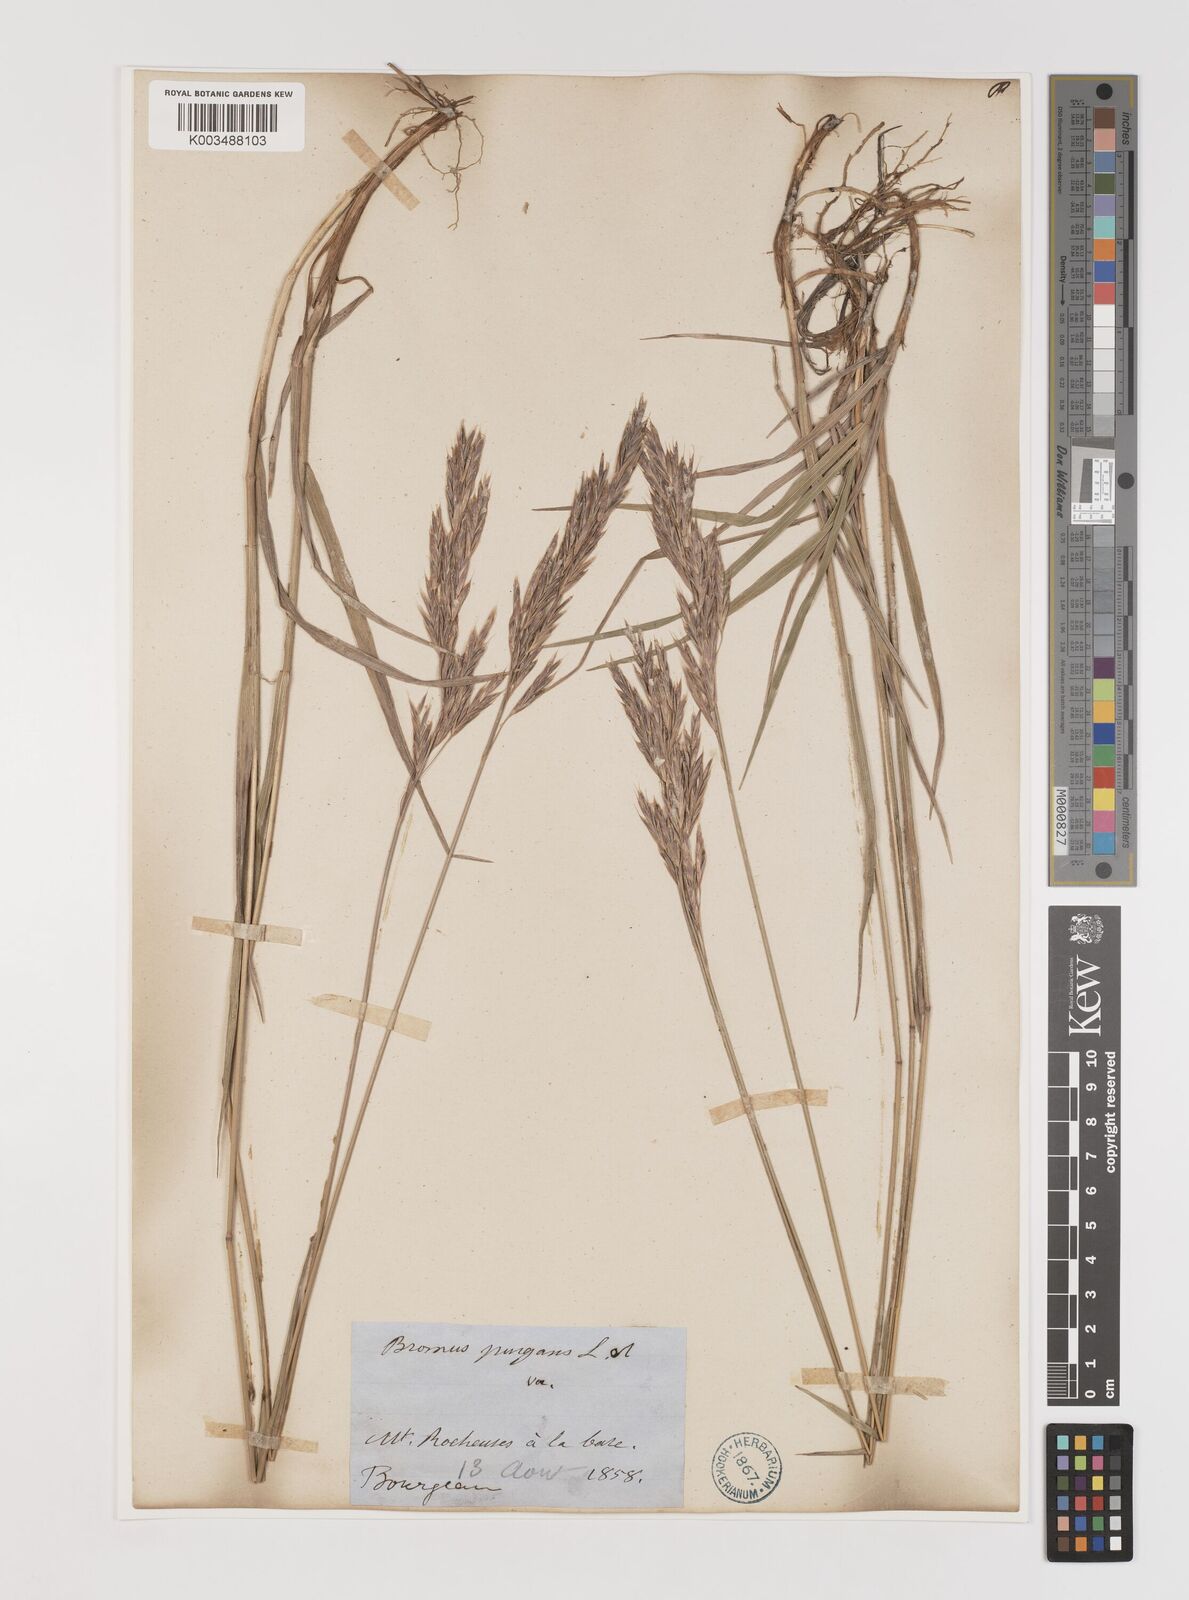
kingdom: Plantae
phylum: Tracheophyta
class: Liliopsida
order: Poales
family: Poaceae
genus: Bromus
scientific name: Bromus pumpellianus
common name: Pumpelly's brome
